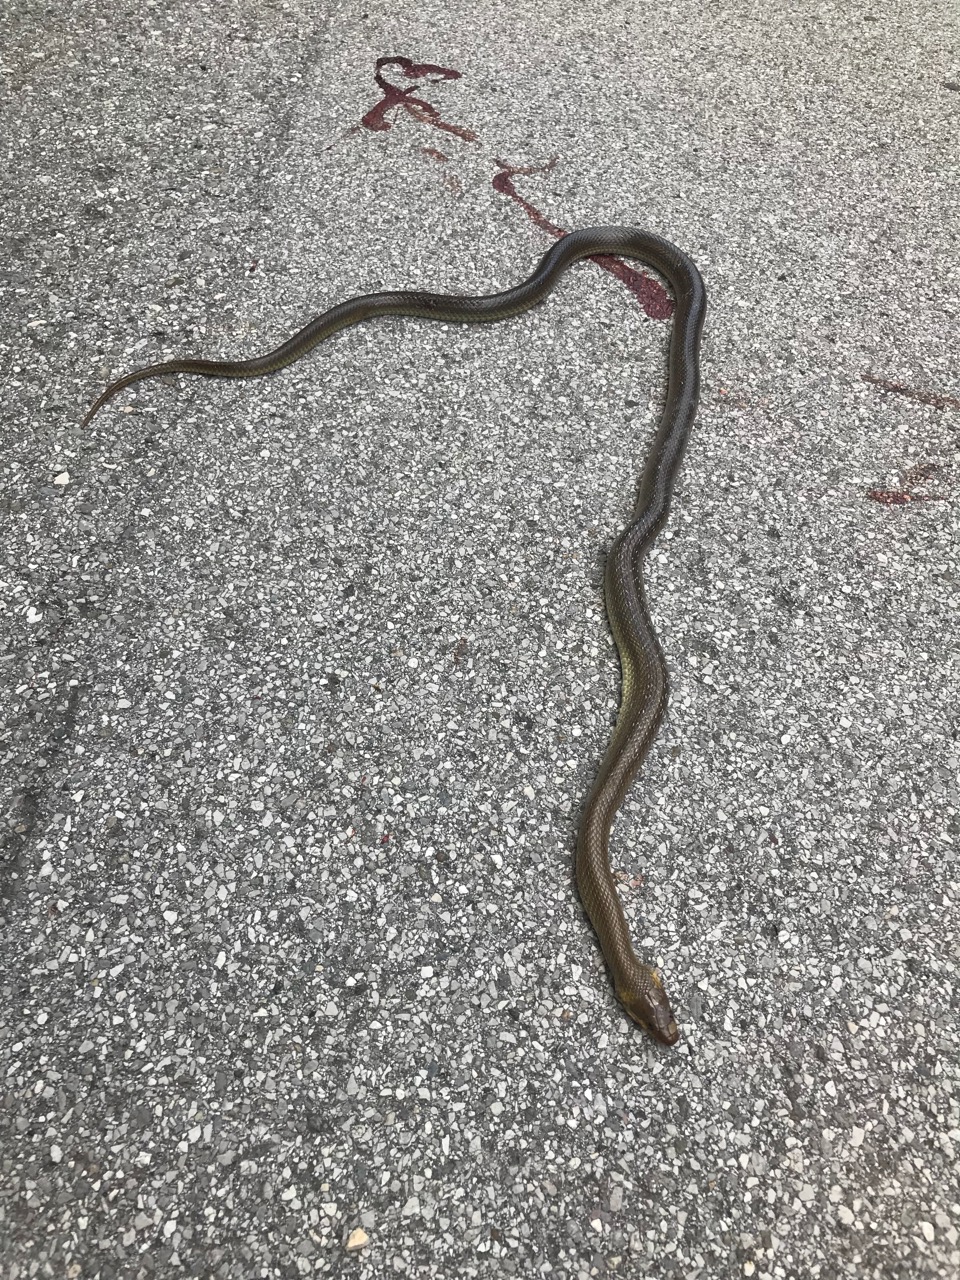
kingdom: Animalia
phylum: Chordata
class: Squamata
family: Colubridae
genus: Zamenis
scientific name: Zamenis longissimus
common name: Aesculapean snake
